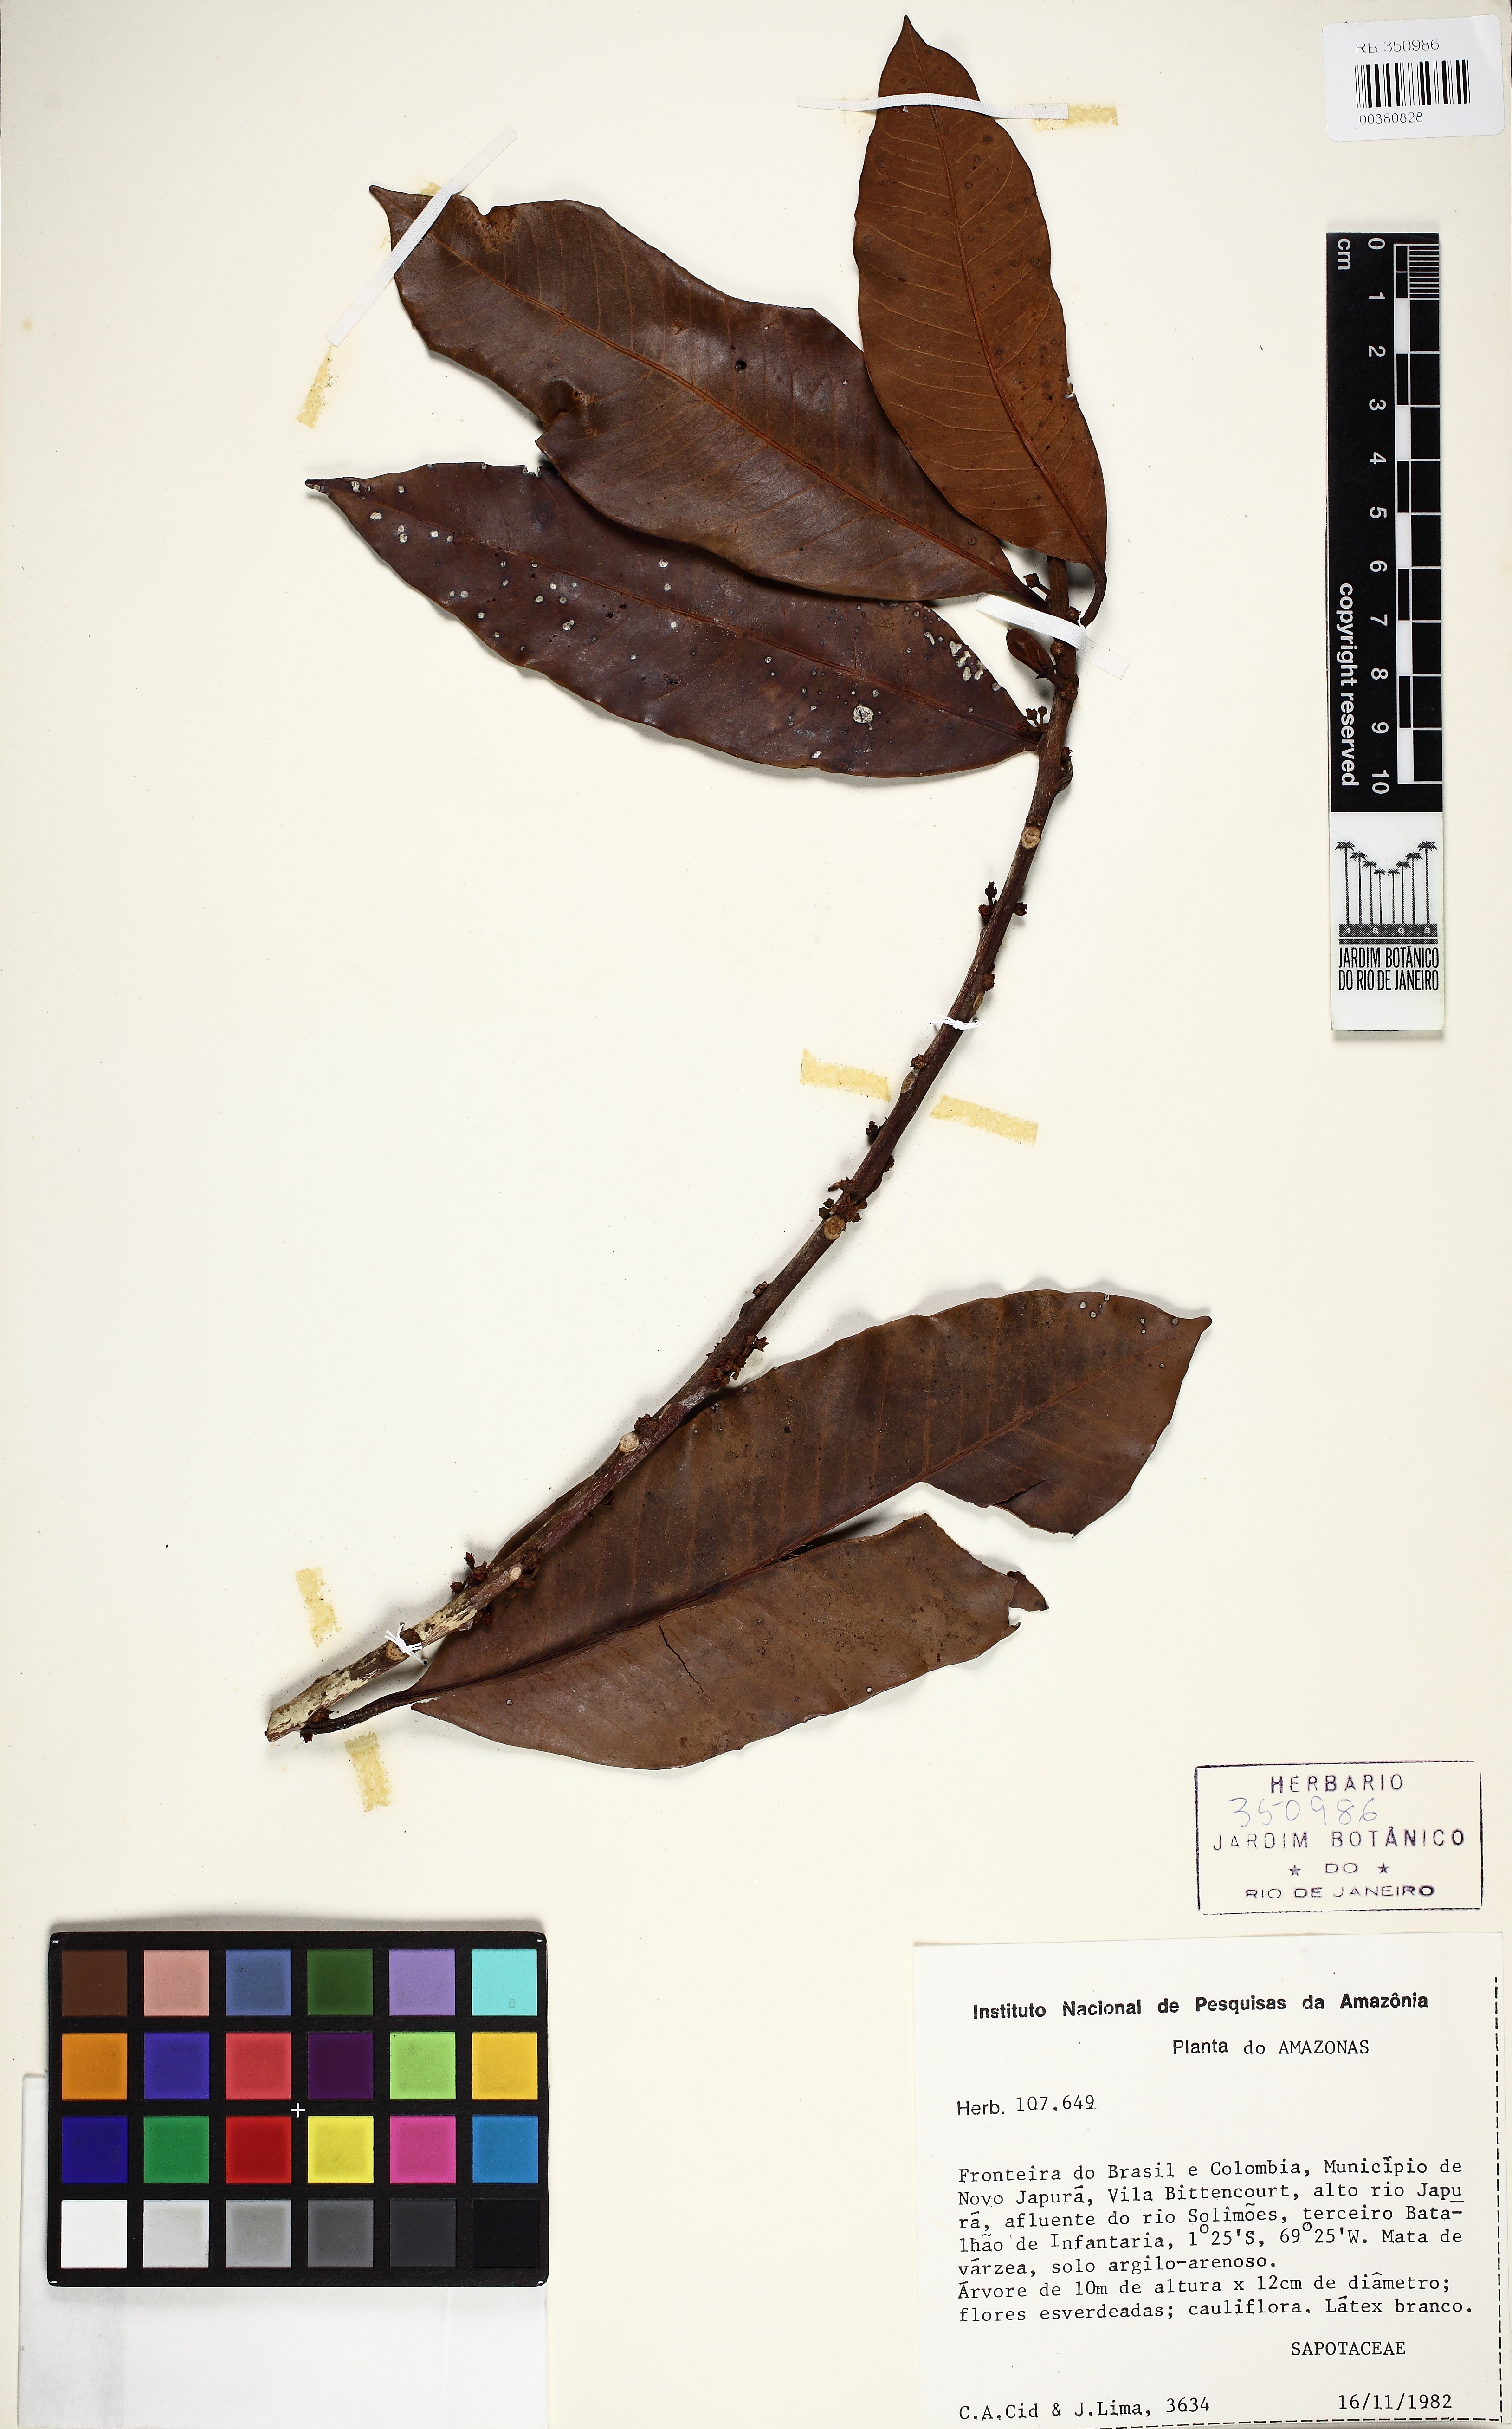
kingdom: Plantae
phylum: Tracheophyta
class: Magnoliopsida
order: Ericales
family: Sapotaceae
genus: Pouteria
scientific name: Pouteria
